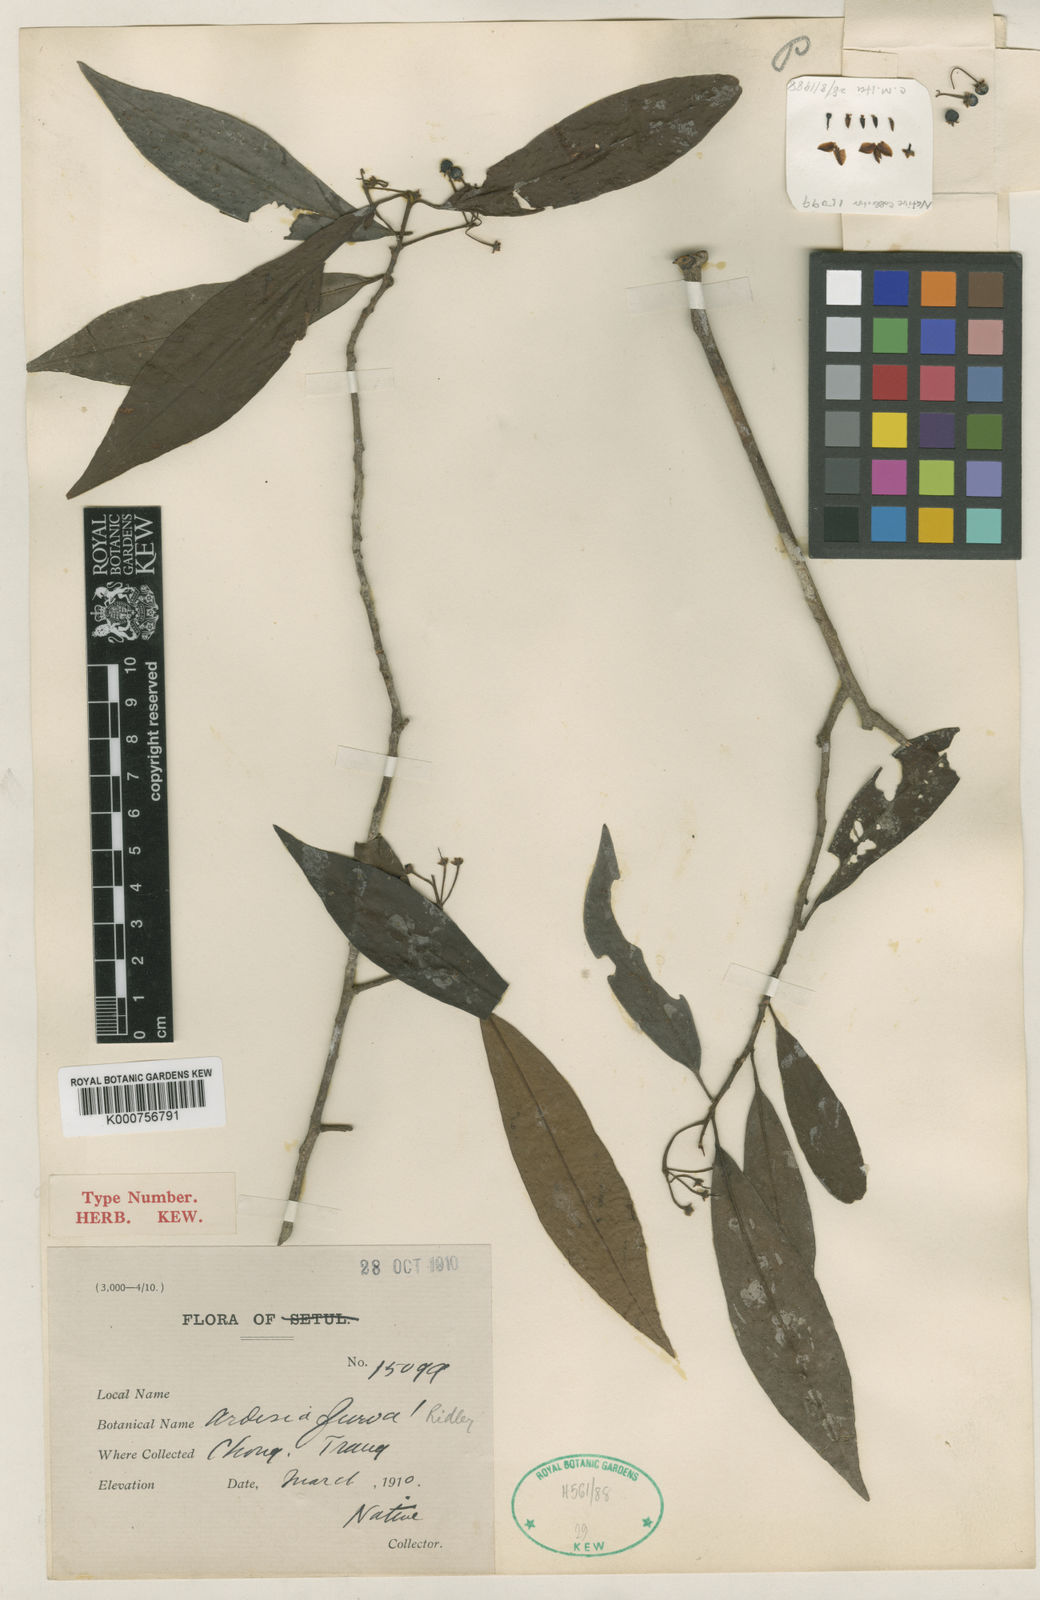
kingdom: Plantae
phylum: Tracheophyta
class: Magnoliopsida
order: Ericales
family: Primulaceae
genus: Ardisia
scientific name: Ardisia furva
